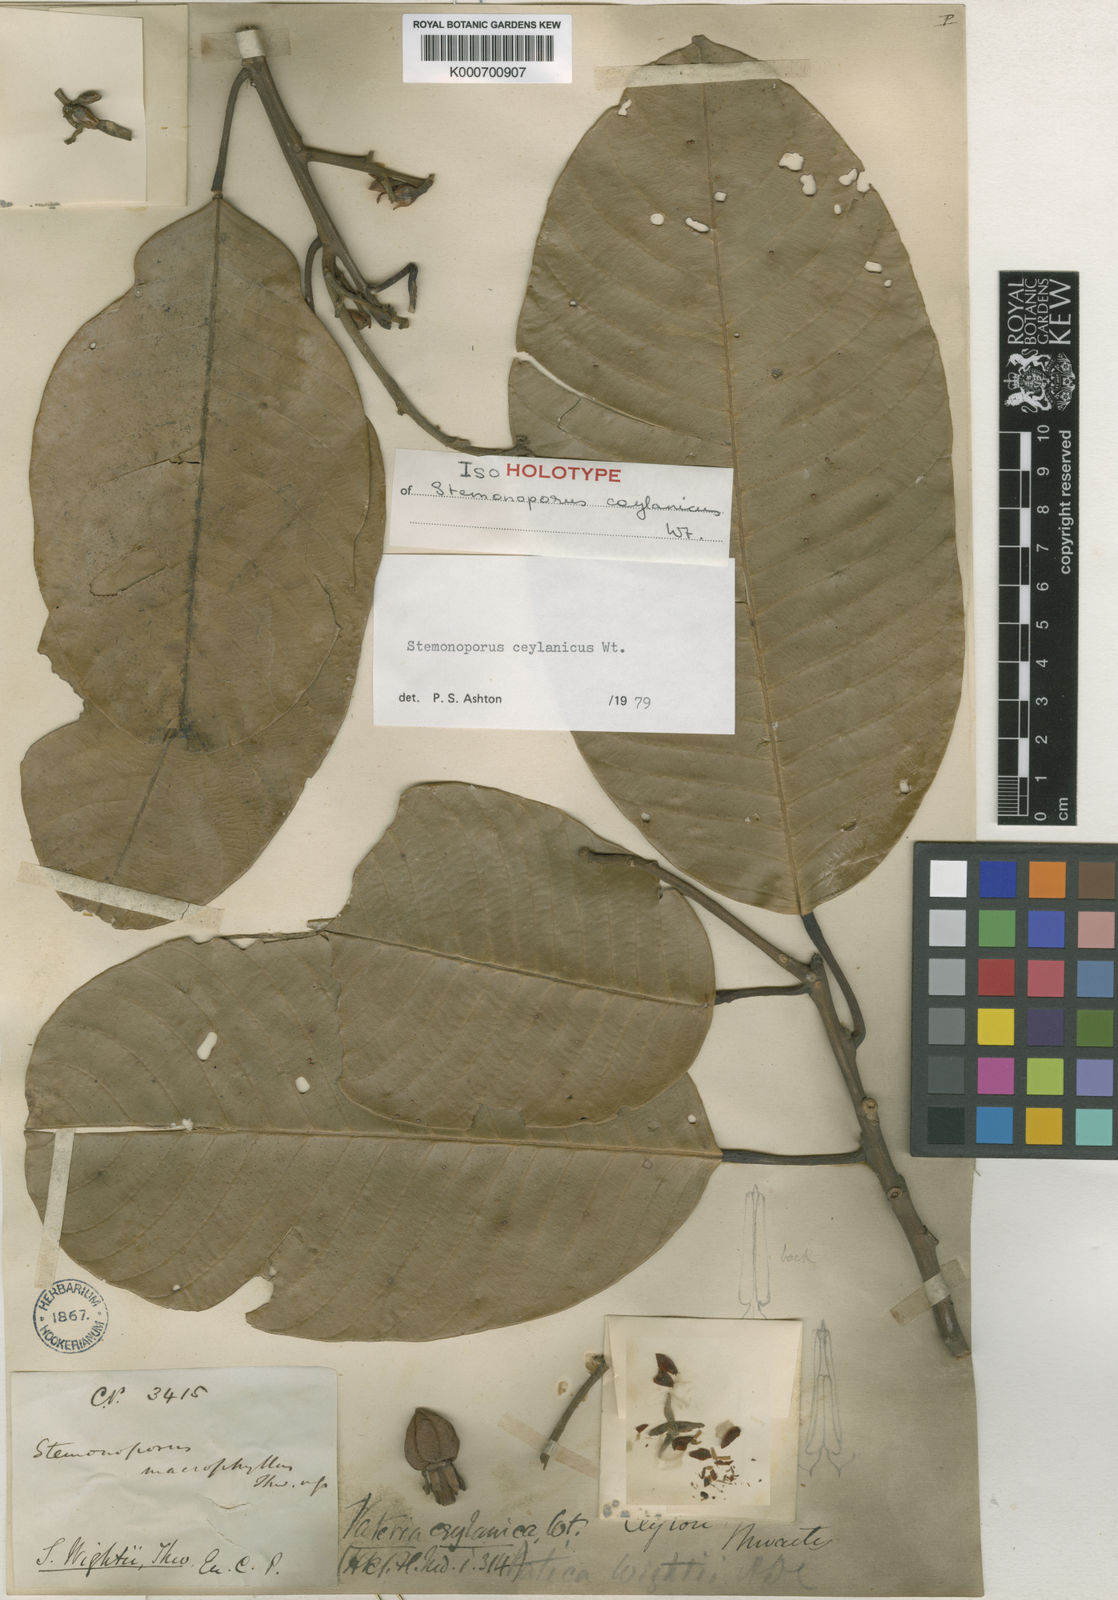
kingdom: Plantae
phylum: Tracheophyta
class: Magnoliopsida
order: Malvales
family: Dipterocarpaceae
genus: Stemonoporus
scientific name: Stemonoporus ceylanicus
